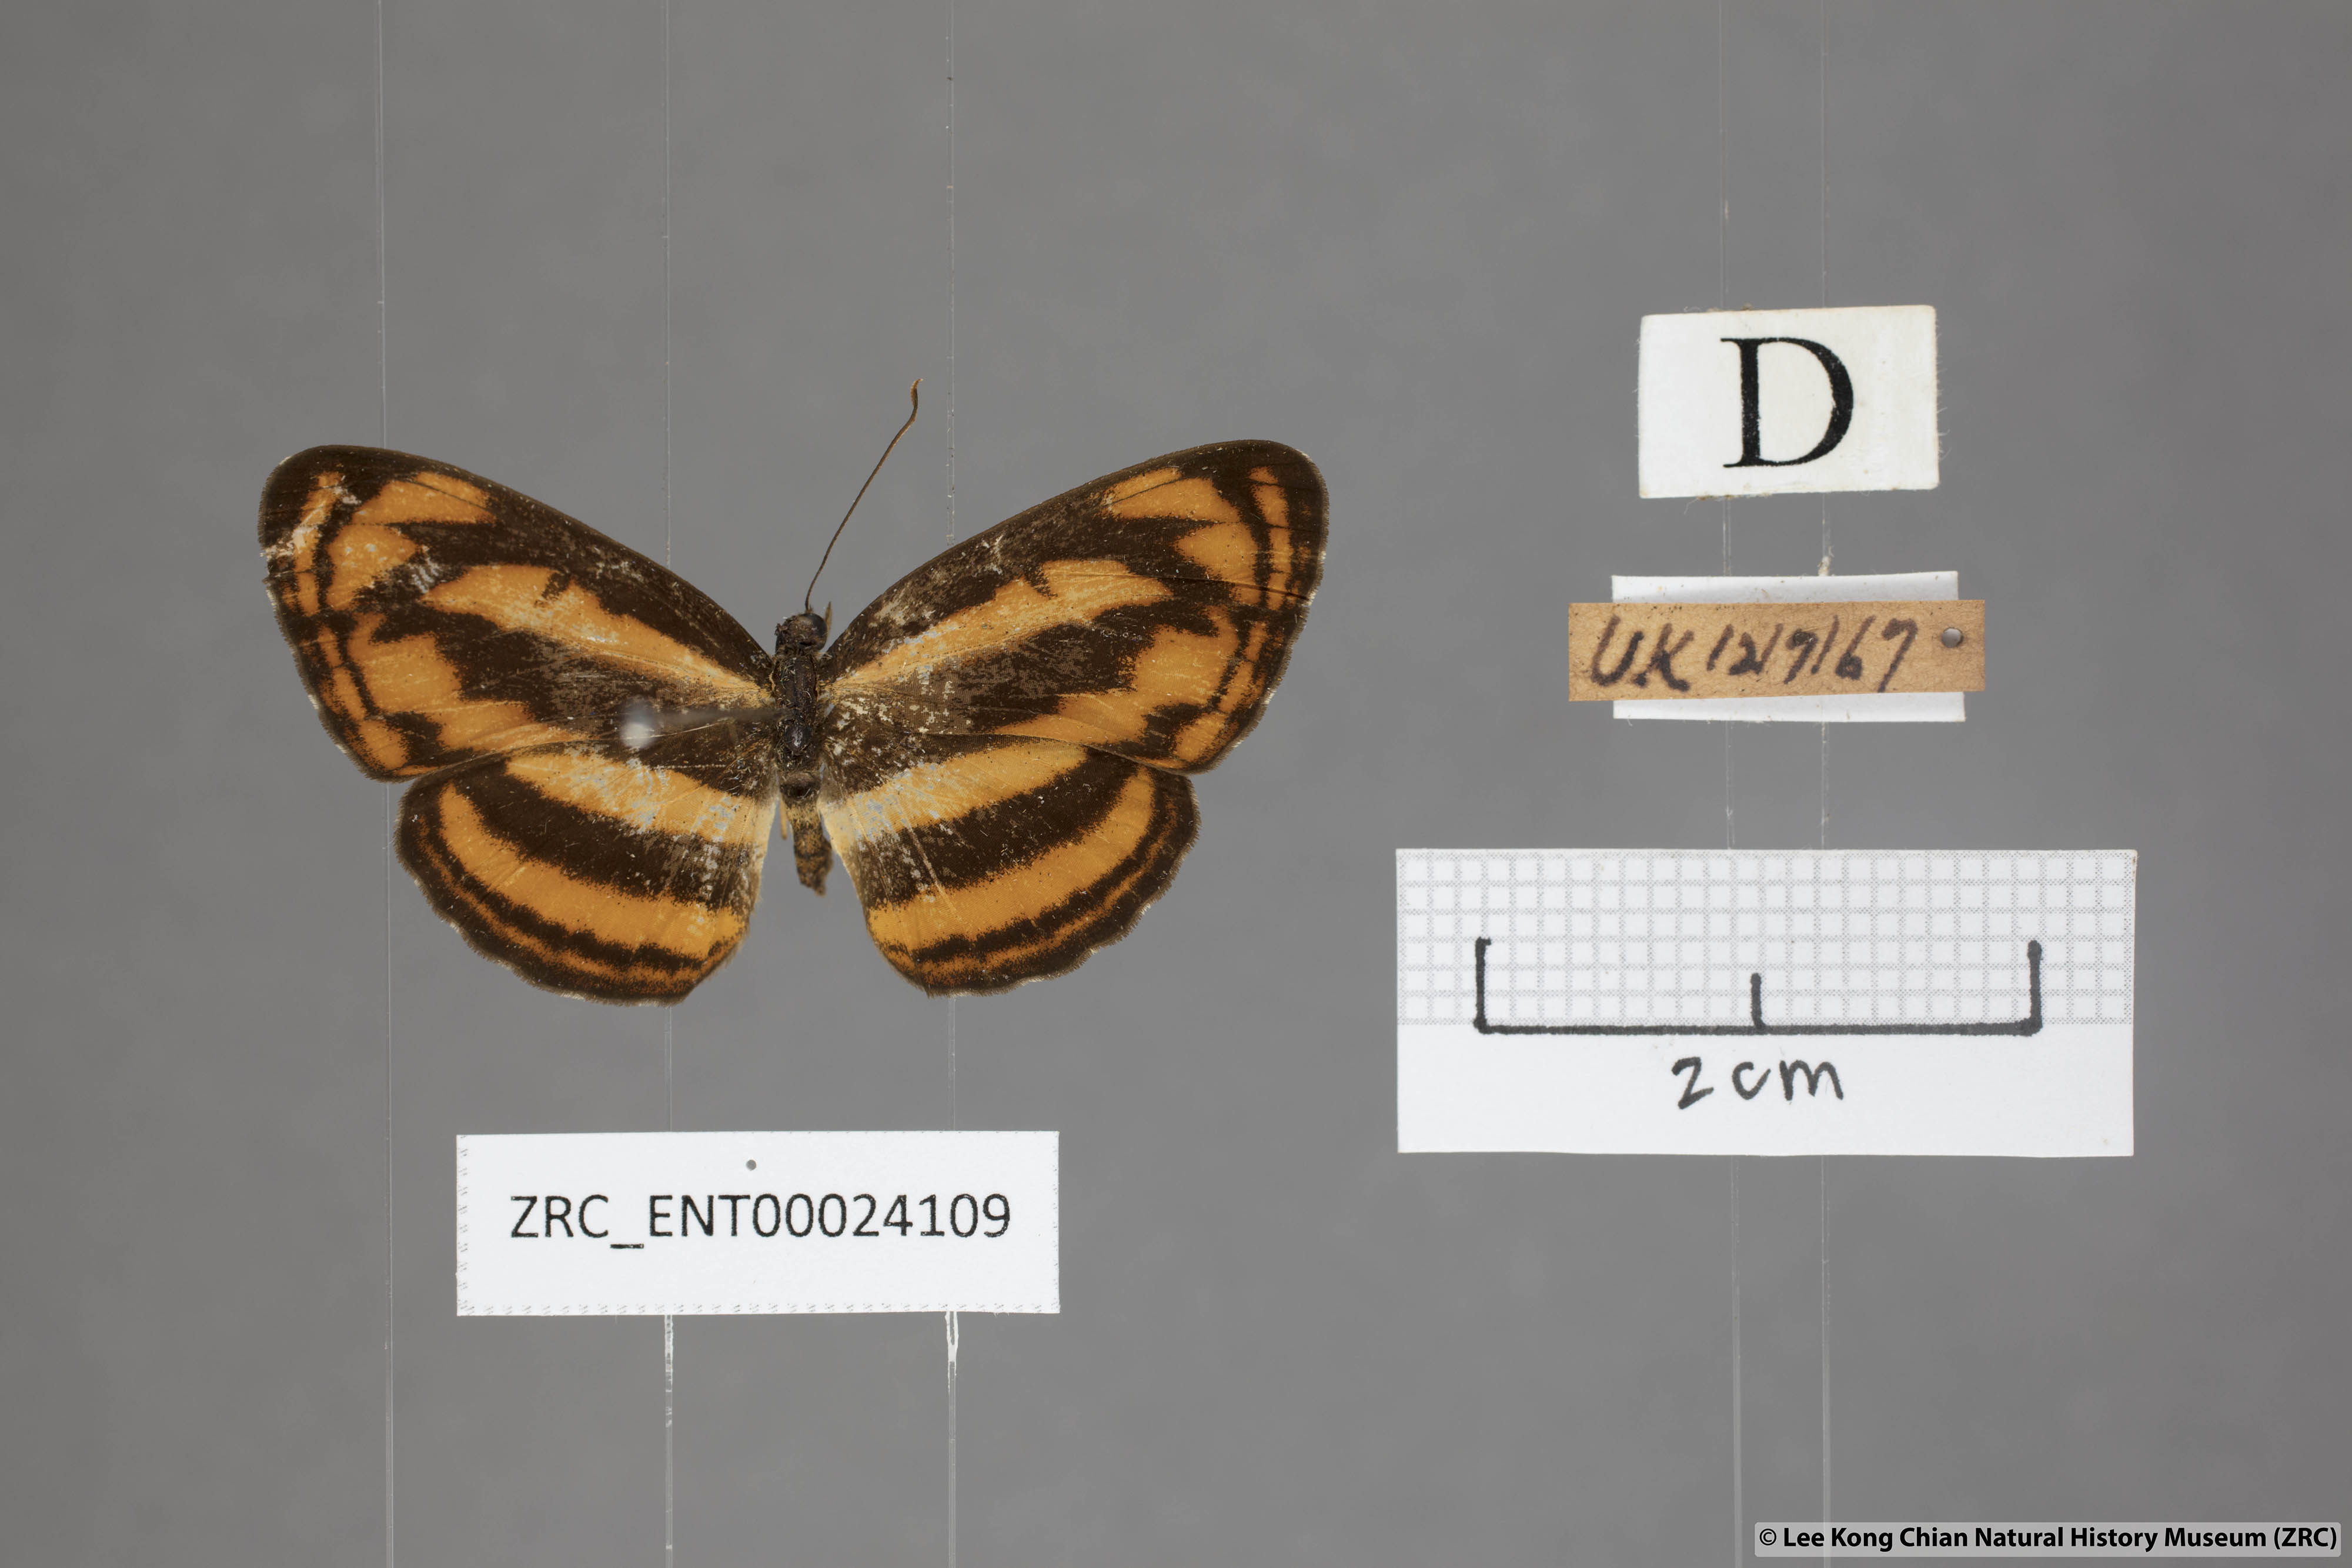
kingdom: Animalia
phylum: Arthropoda
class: Insecta
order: Lepidoptera
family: Nymphalidae
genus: Pantoporia
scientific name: Pantoporia aurelia
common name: Baby lascar
